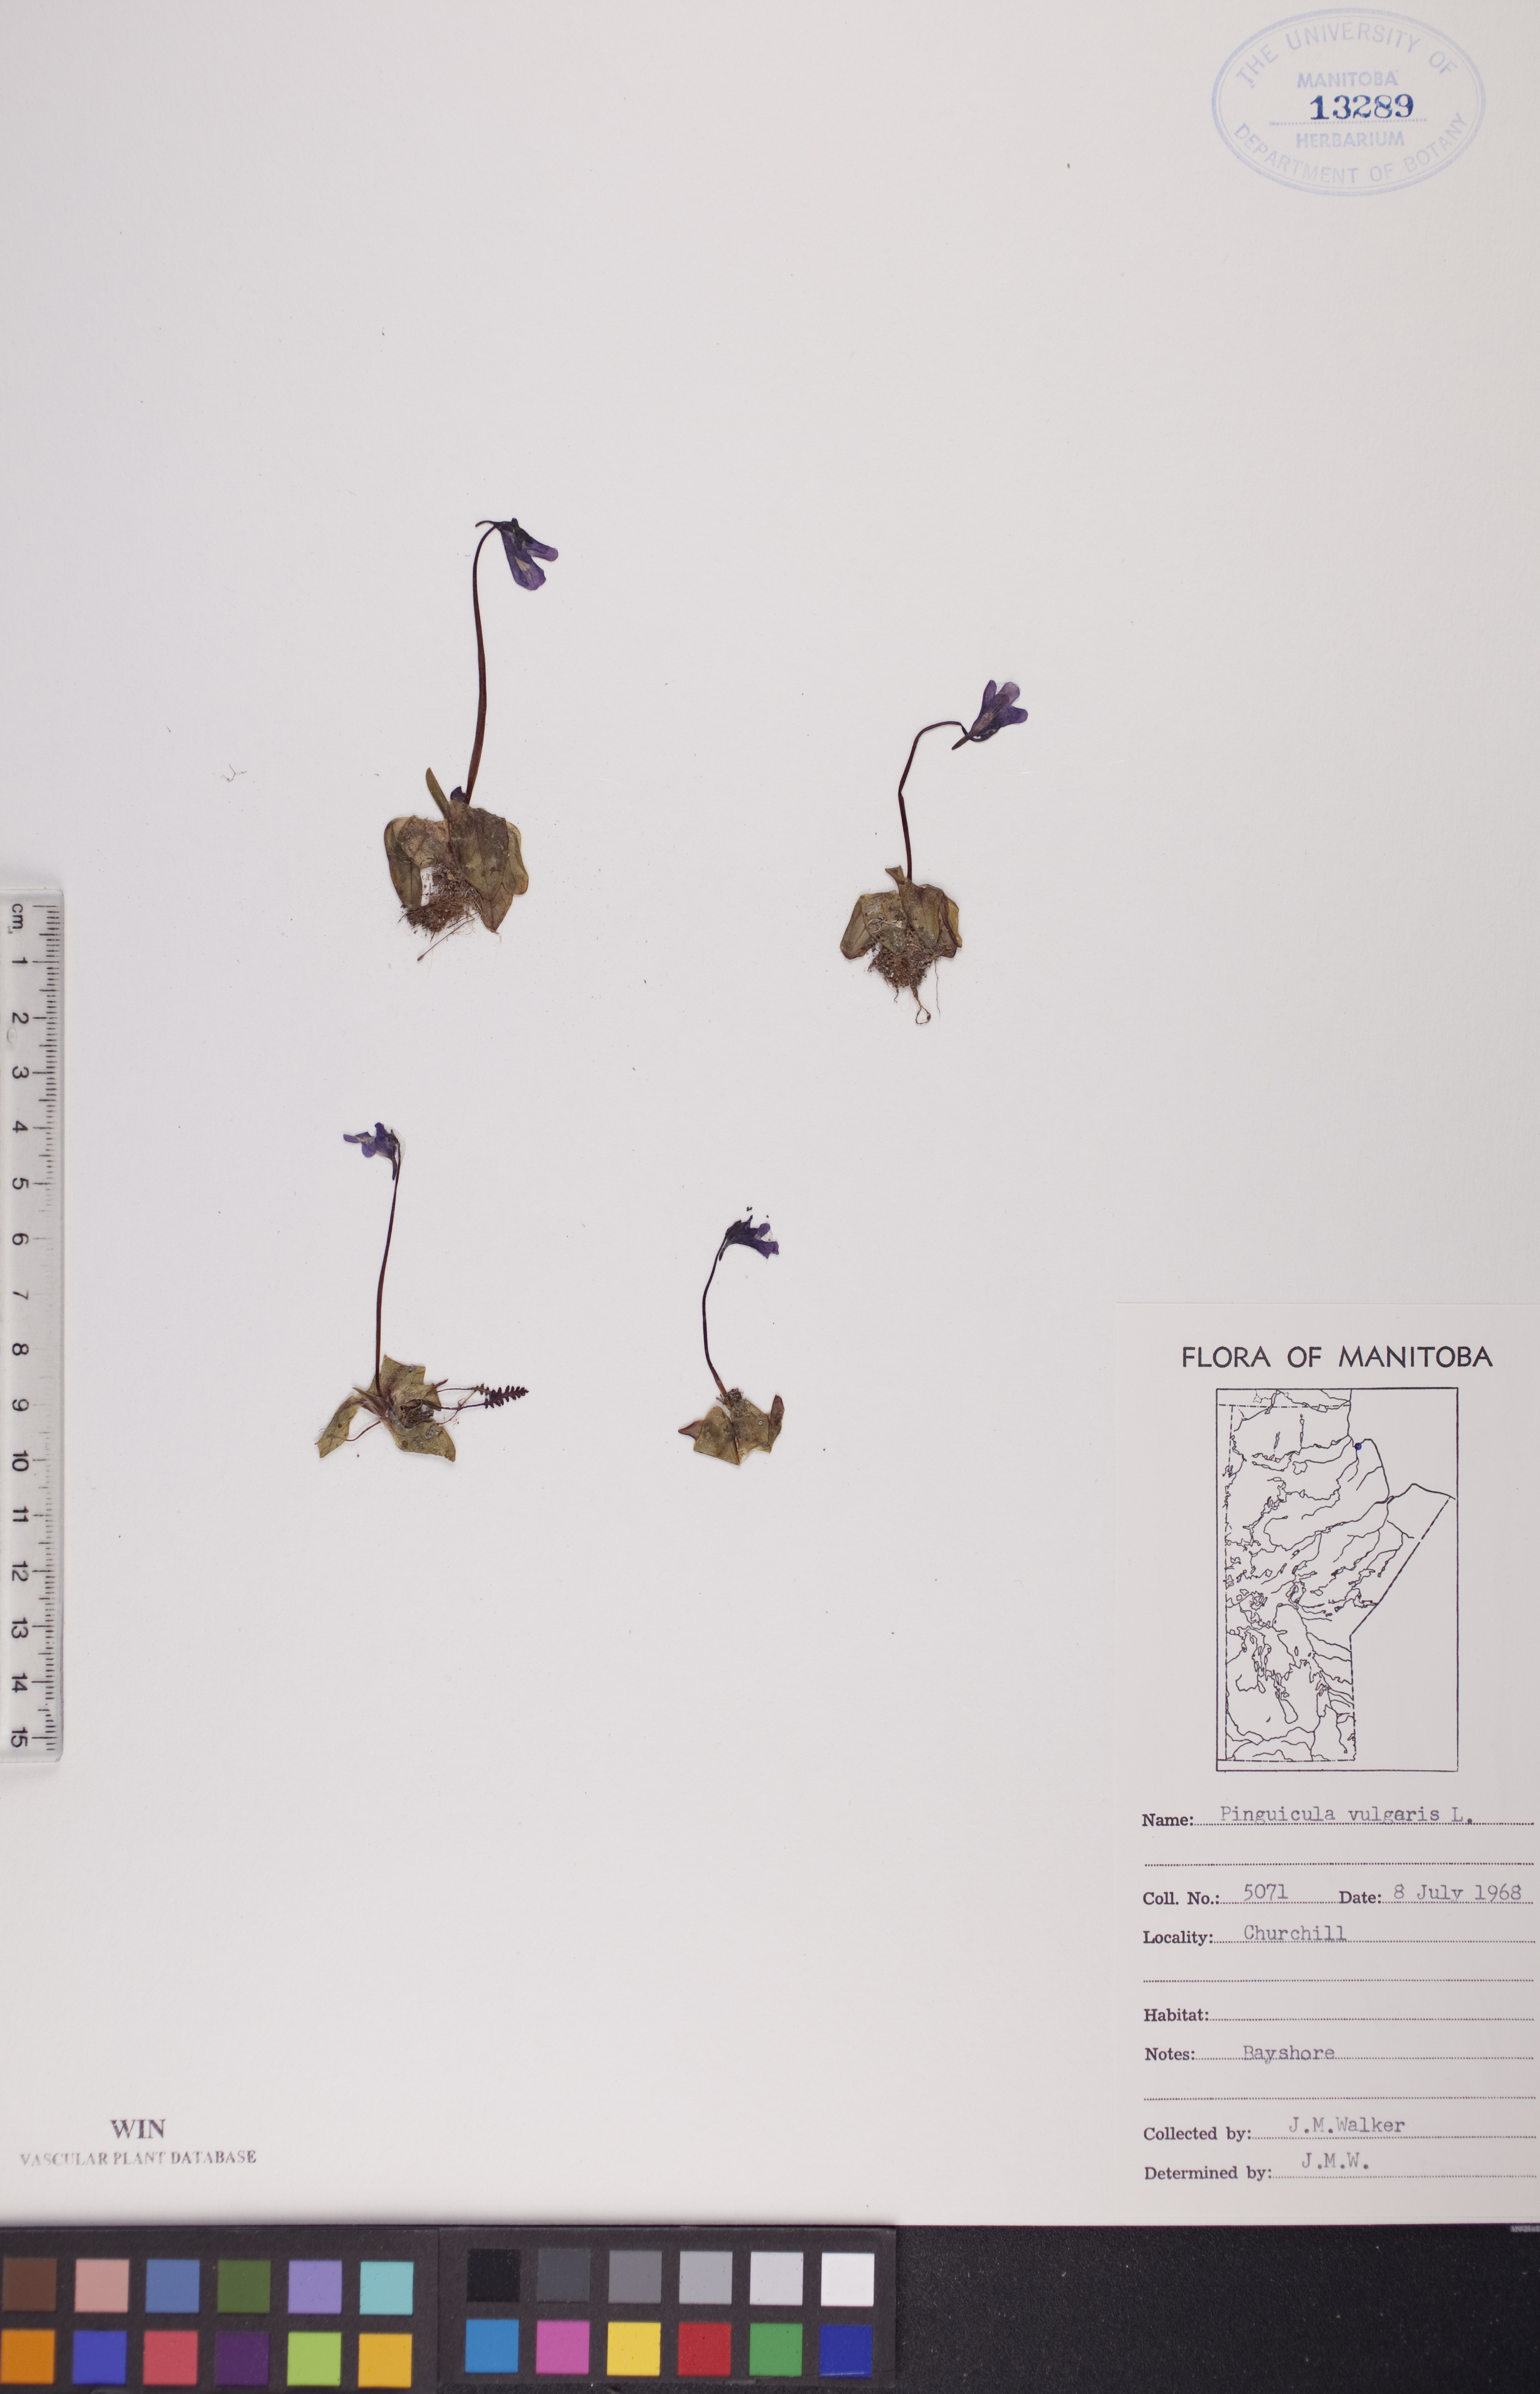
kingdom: Plantae
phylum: Tracheophyta
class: Magnoliopsida
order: Lamiales
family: Lentibulariaceae
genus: Pinguicula
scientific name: Pinguicula vulgaris
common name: Common butterwort
